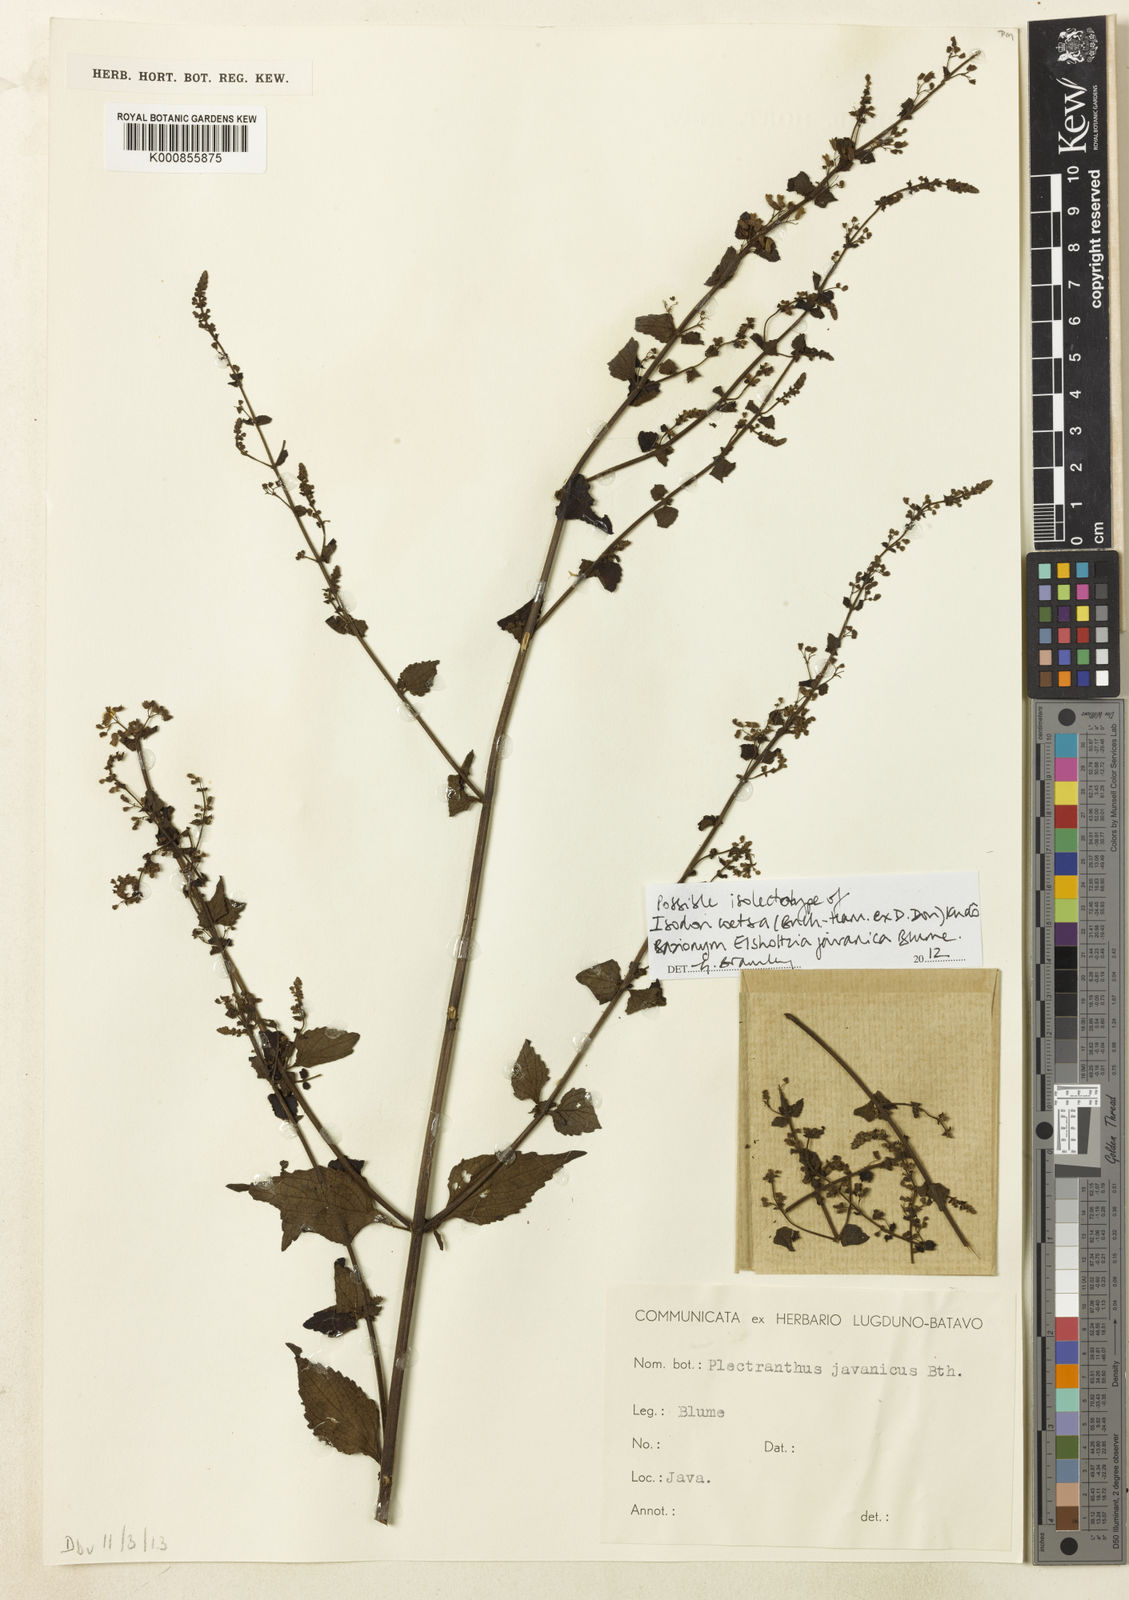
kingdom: Plantae
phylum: Tracheophyta
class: Magnoliopsida
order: Lamiales
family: Lamiaceae
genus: Isodon
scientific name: Isodon
